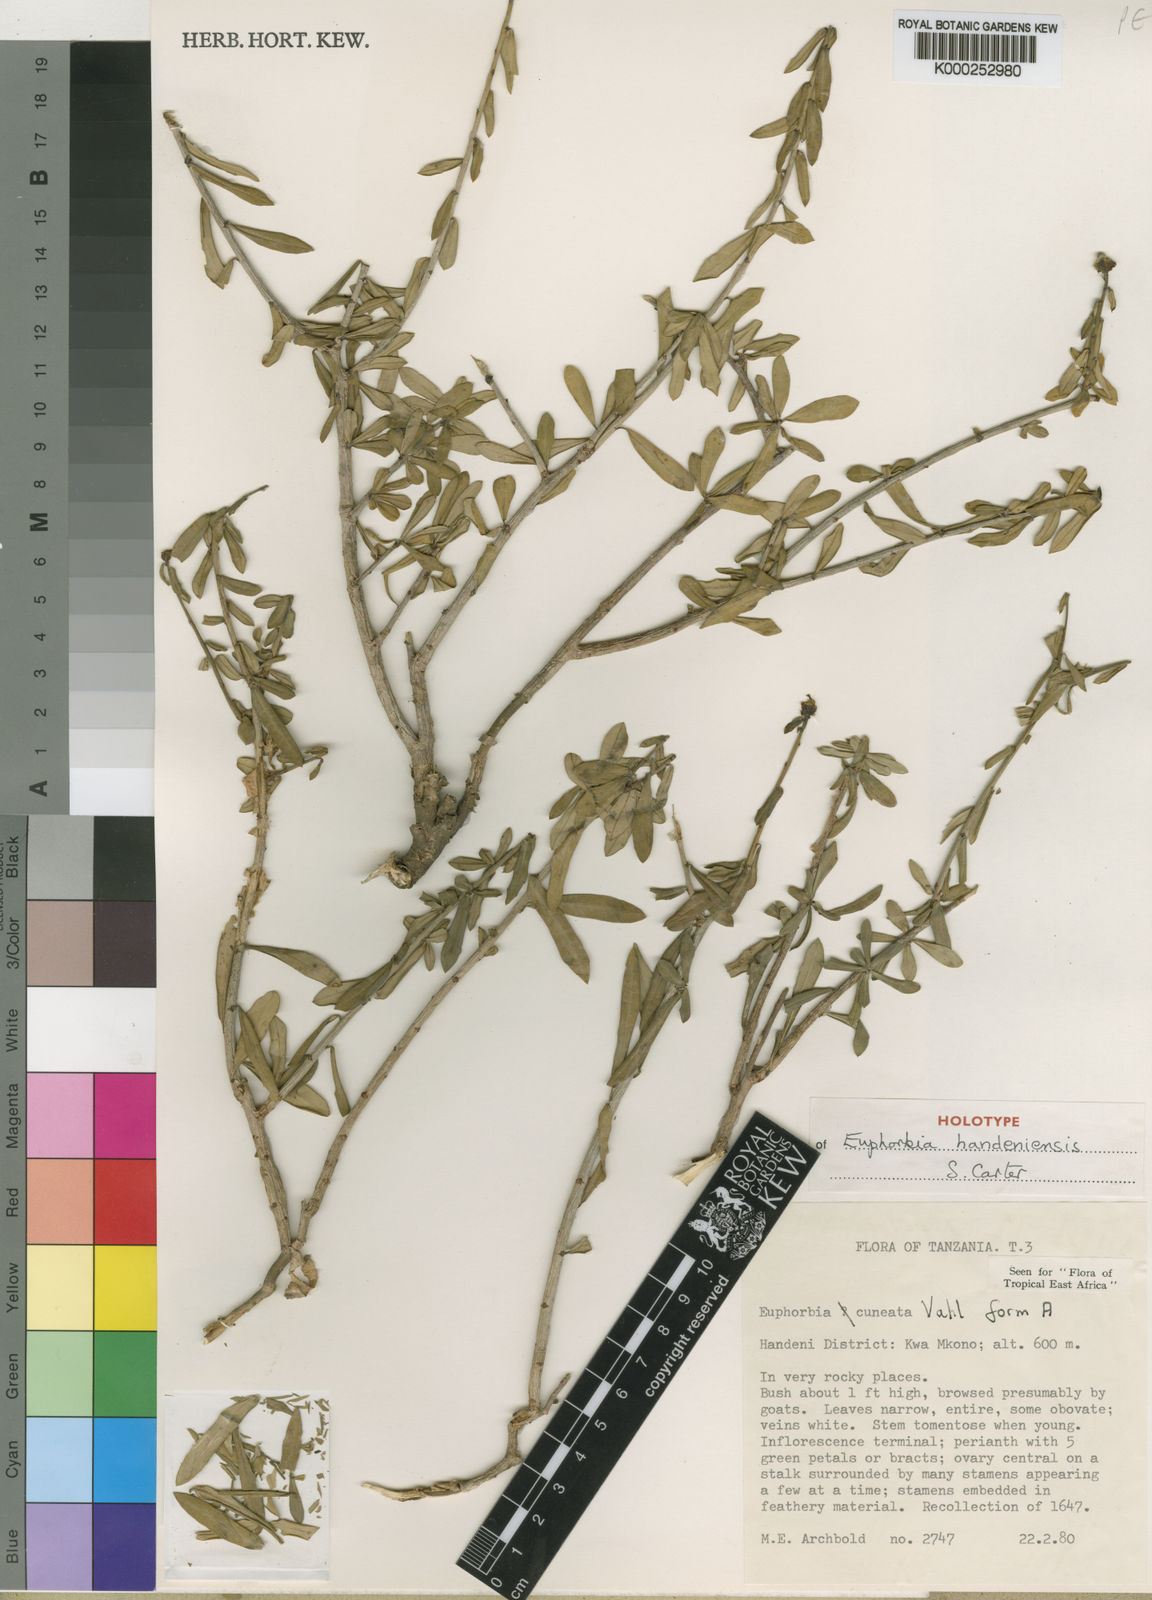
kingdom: Plantae
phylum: Tracheophyta
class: Magnoliopsida
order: Malpighiales
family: Euphorbiaceae
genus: Euphorbia
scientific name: Euphorbia handeniensis
